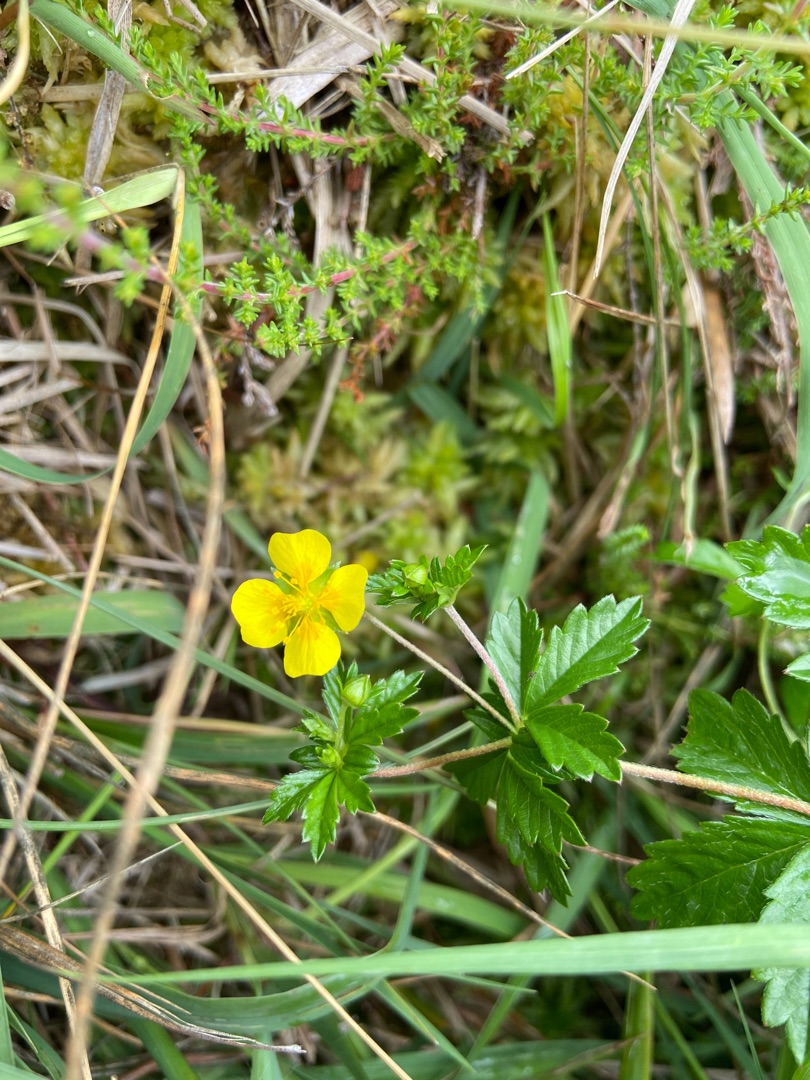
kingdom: Plantae
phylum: Tracheophyta
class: Magnoliopsida
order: Rosales
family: Rosaceae
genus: Potentilla
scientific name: Potentilla erecta
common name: Tormentil
